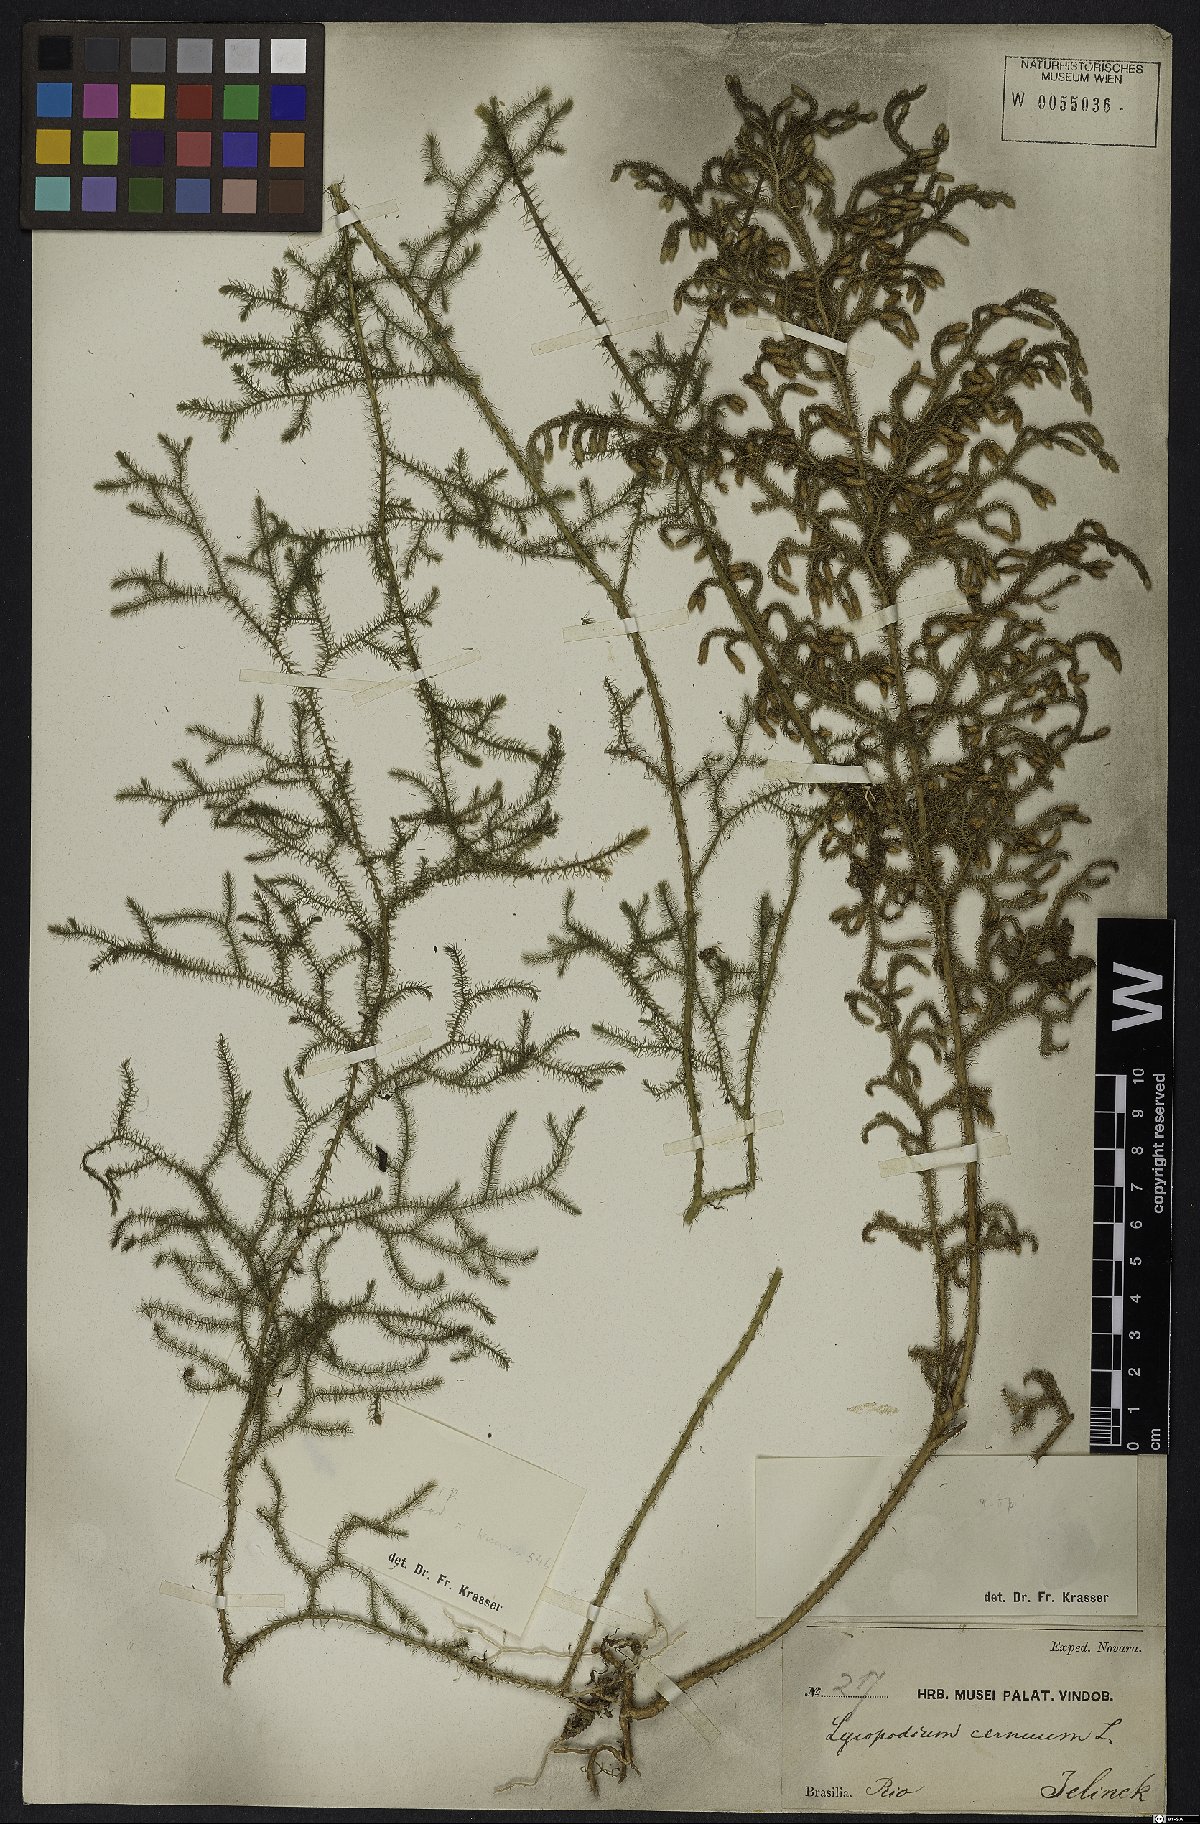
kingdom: Plantae
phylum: Tracheophyta
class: Lycopodiopsida
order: Lycopodiales
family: Lycopodiaceae
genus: Palhinhaea
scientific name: Palhinhaea cernua
